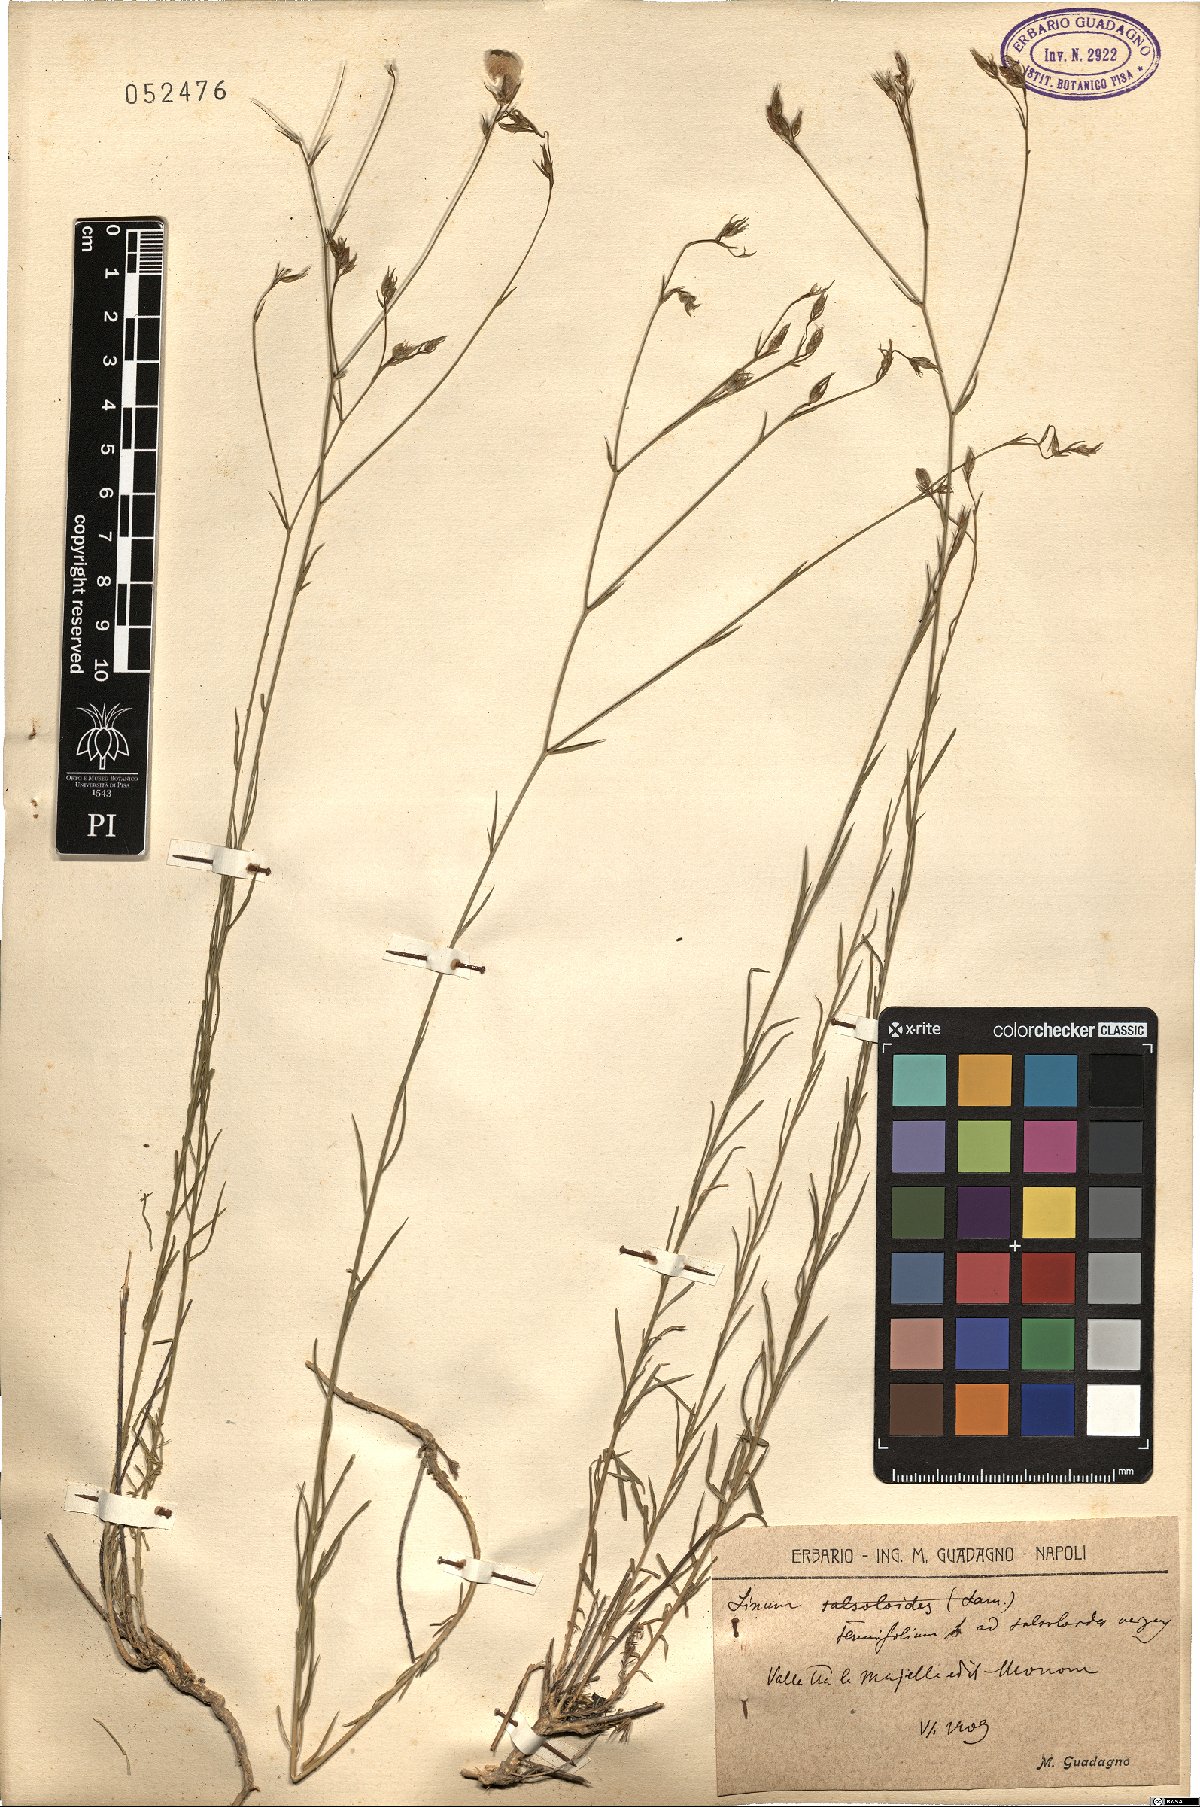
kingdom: Plantae
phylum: Tracheophyta
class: Magnoliopsida
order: Malpighiales
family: Linaceae
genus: Linum
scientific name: Linum tenuifolium
